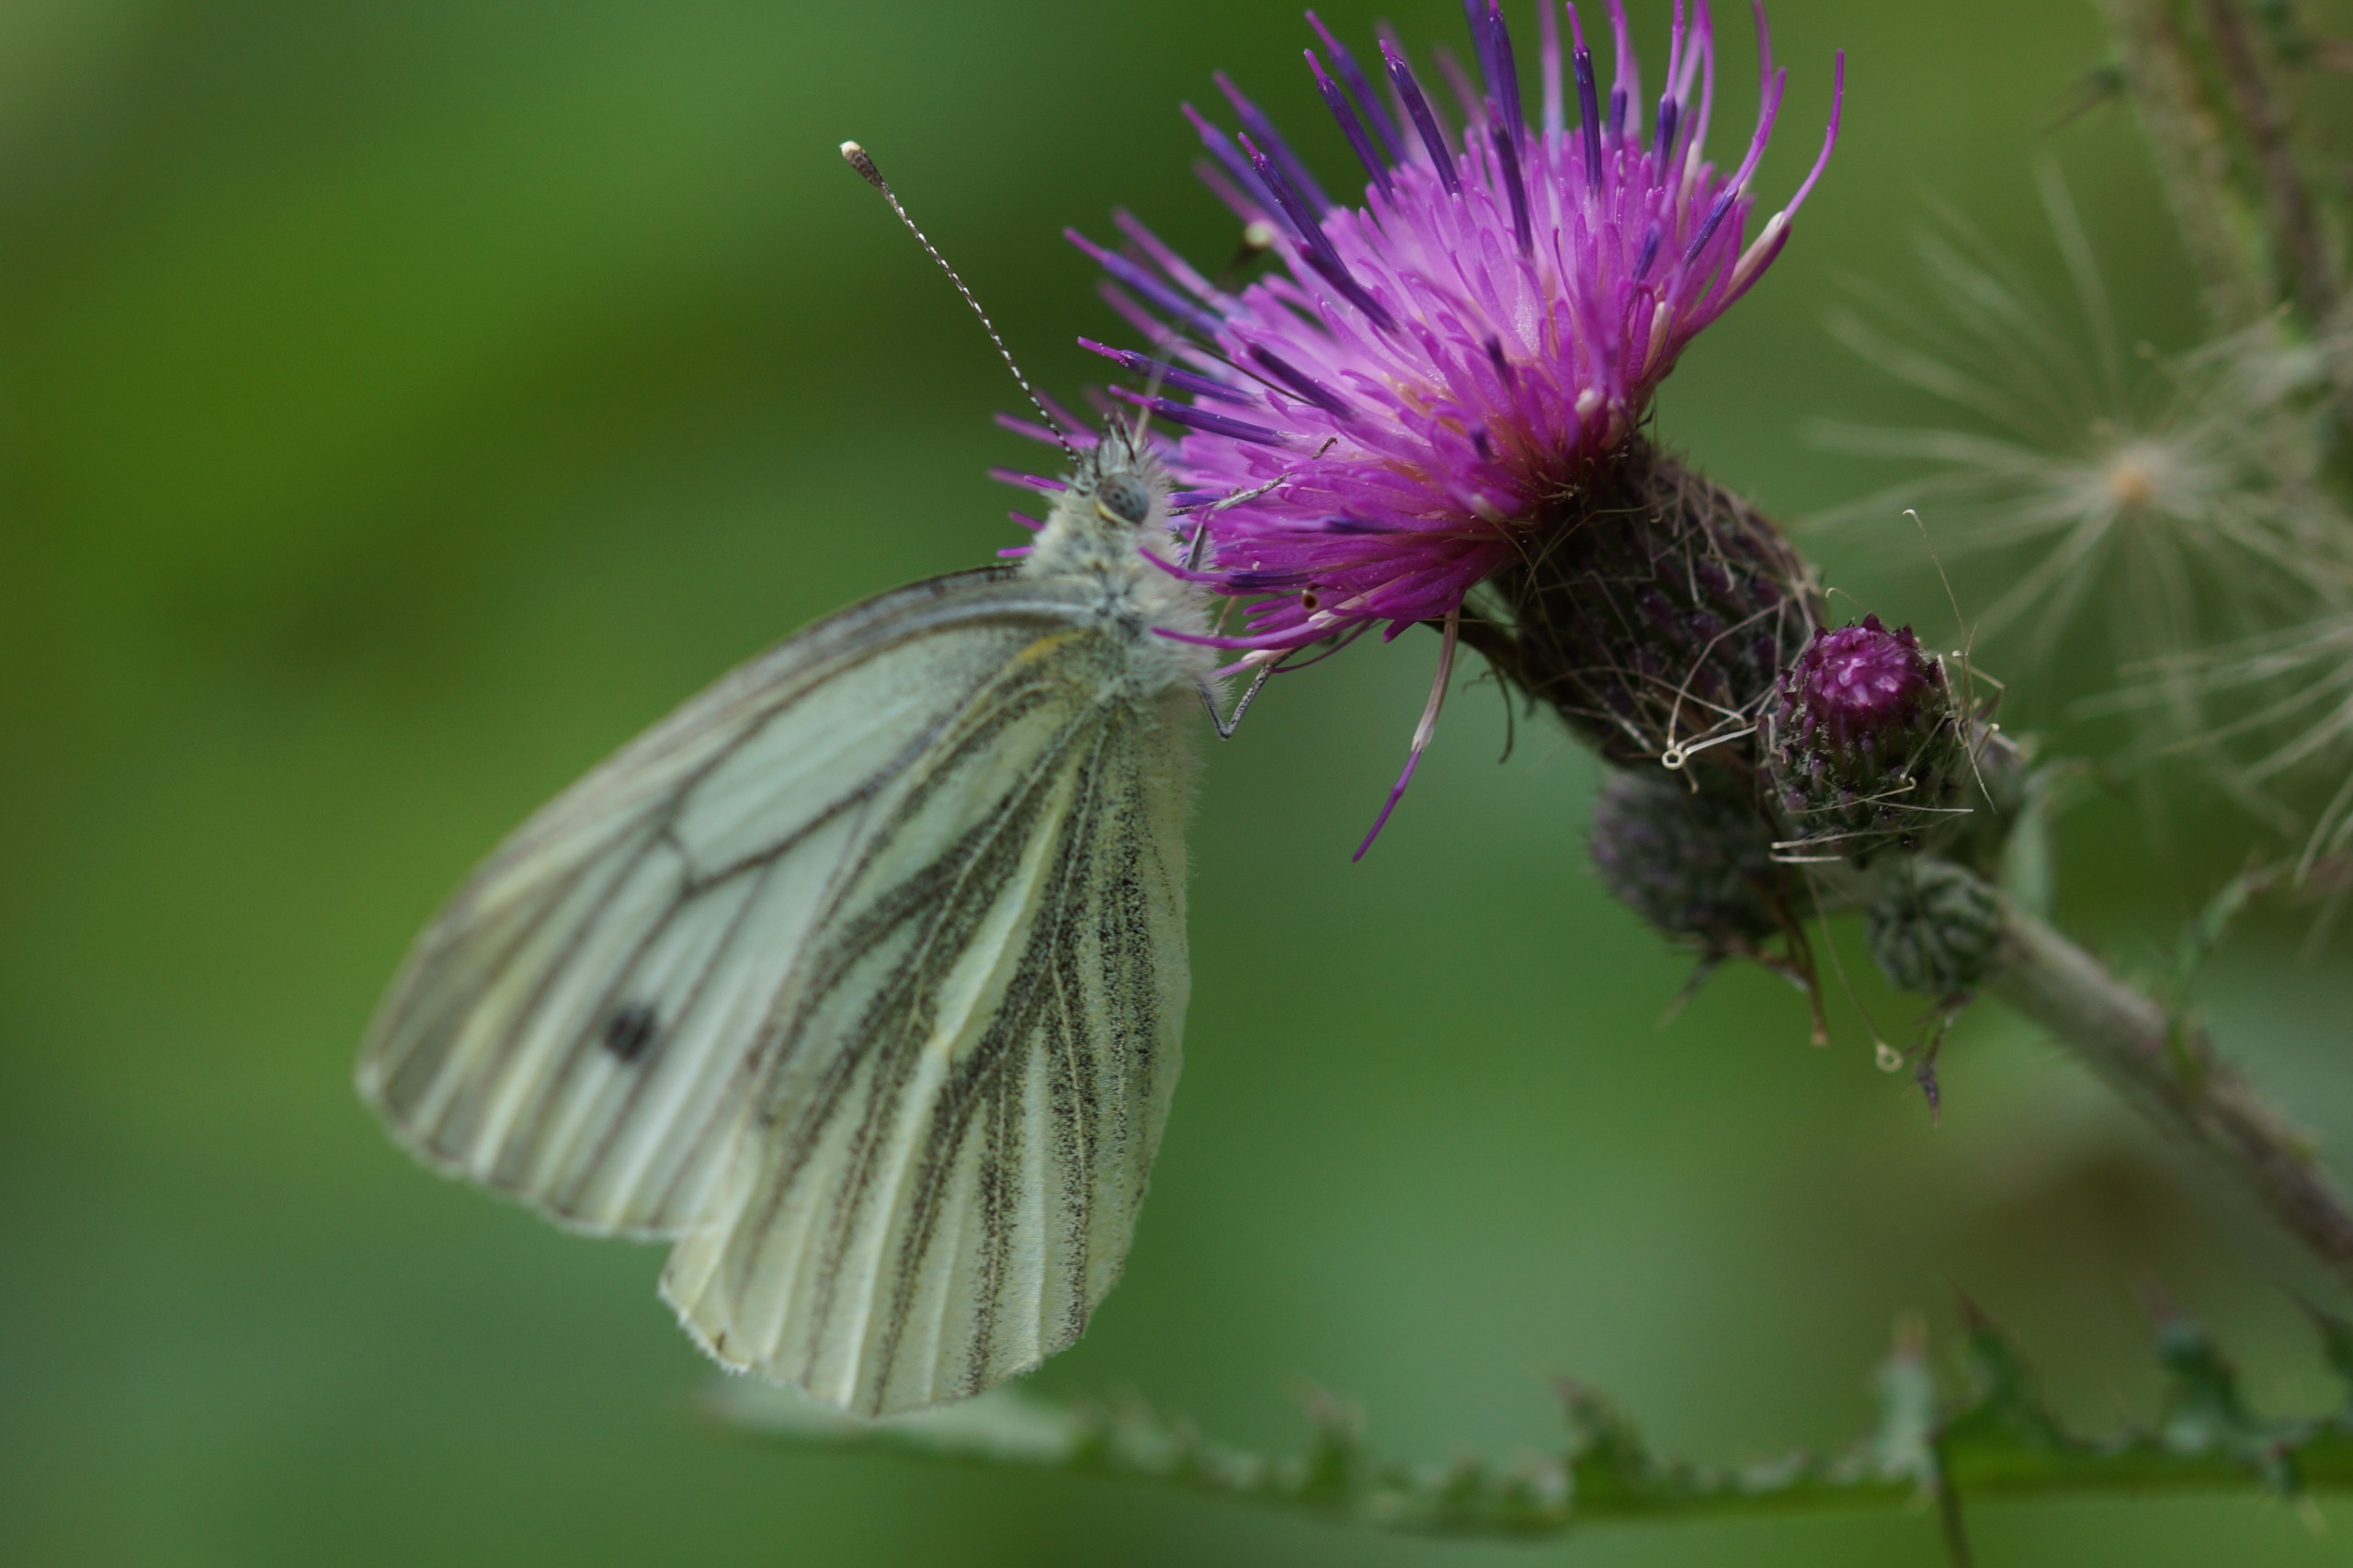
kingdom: Animalia
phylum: Arthropoda
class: Insecta
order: Lepidoptera
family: Pieridae
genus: Pieris
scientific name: Pieris napi
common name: Grønåret kålsommerfugl
